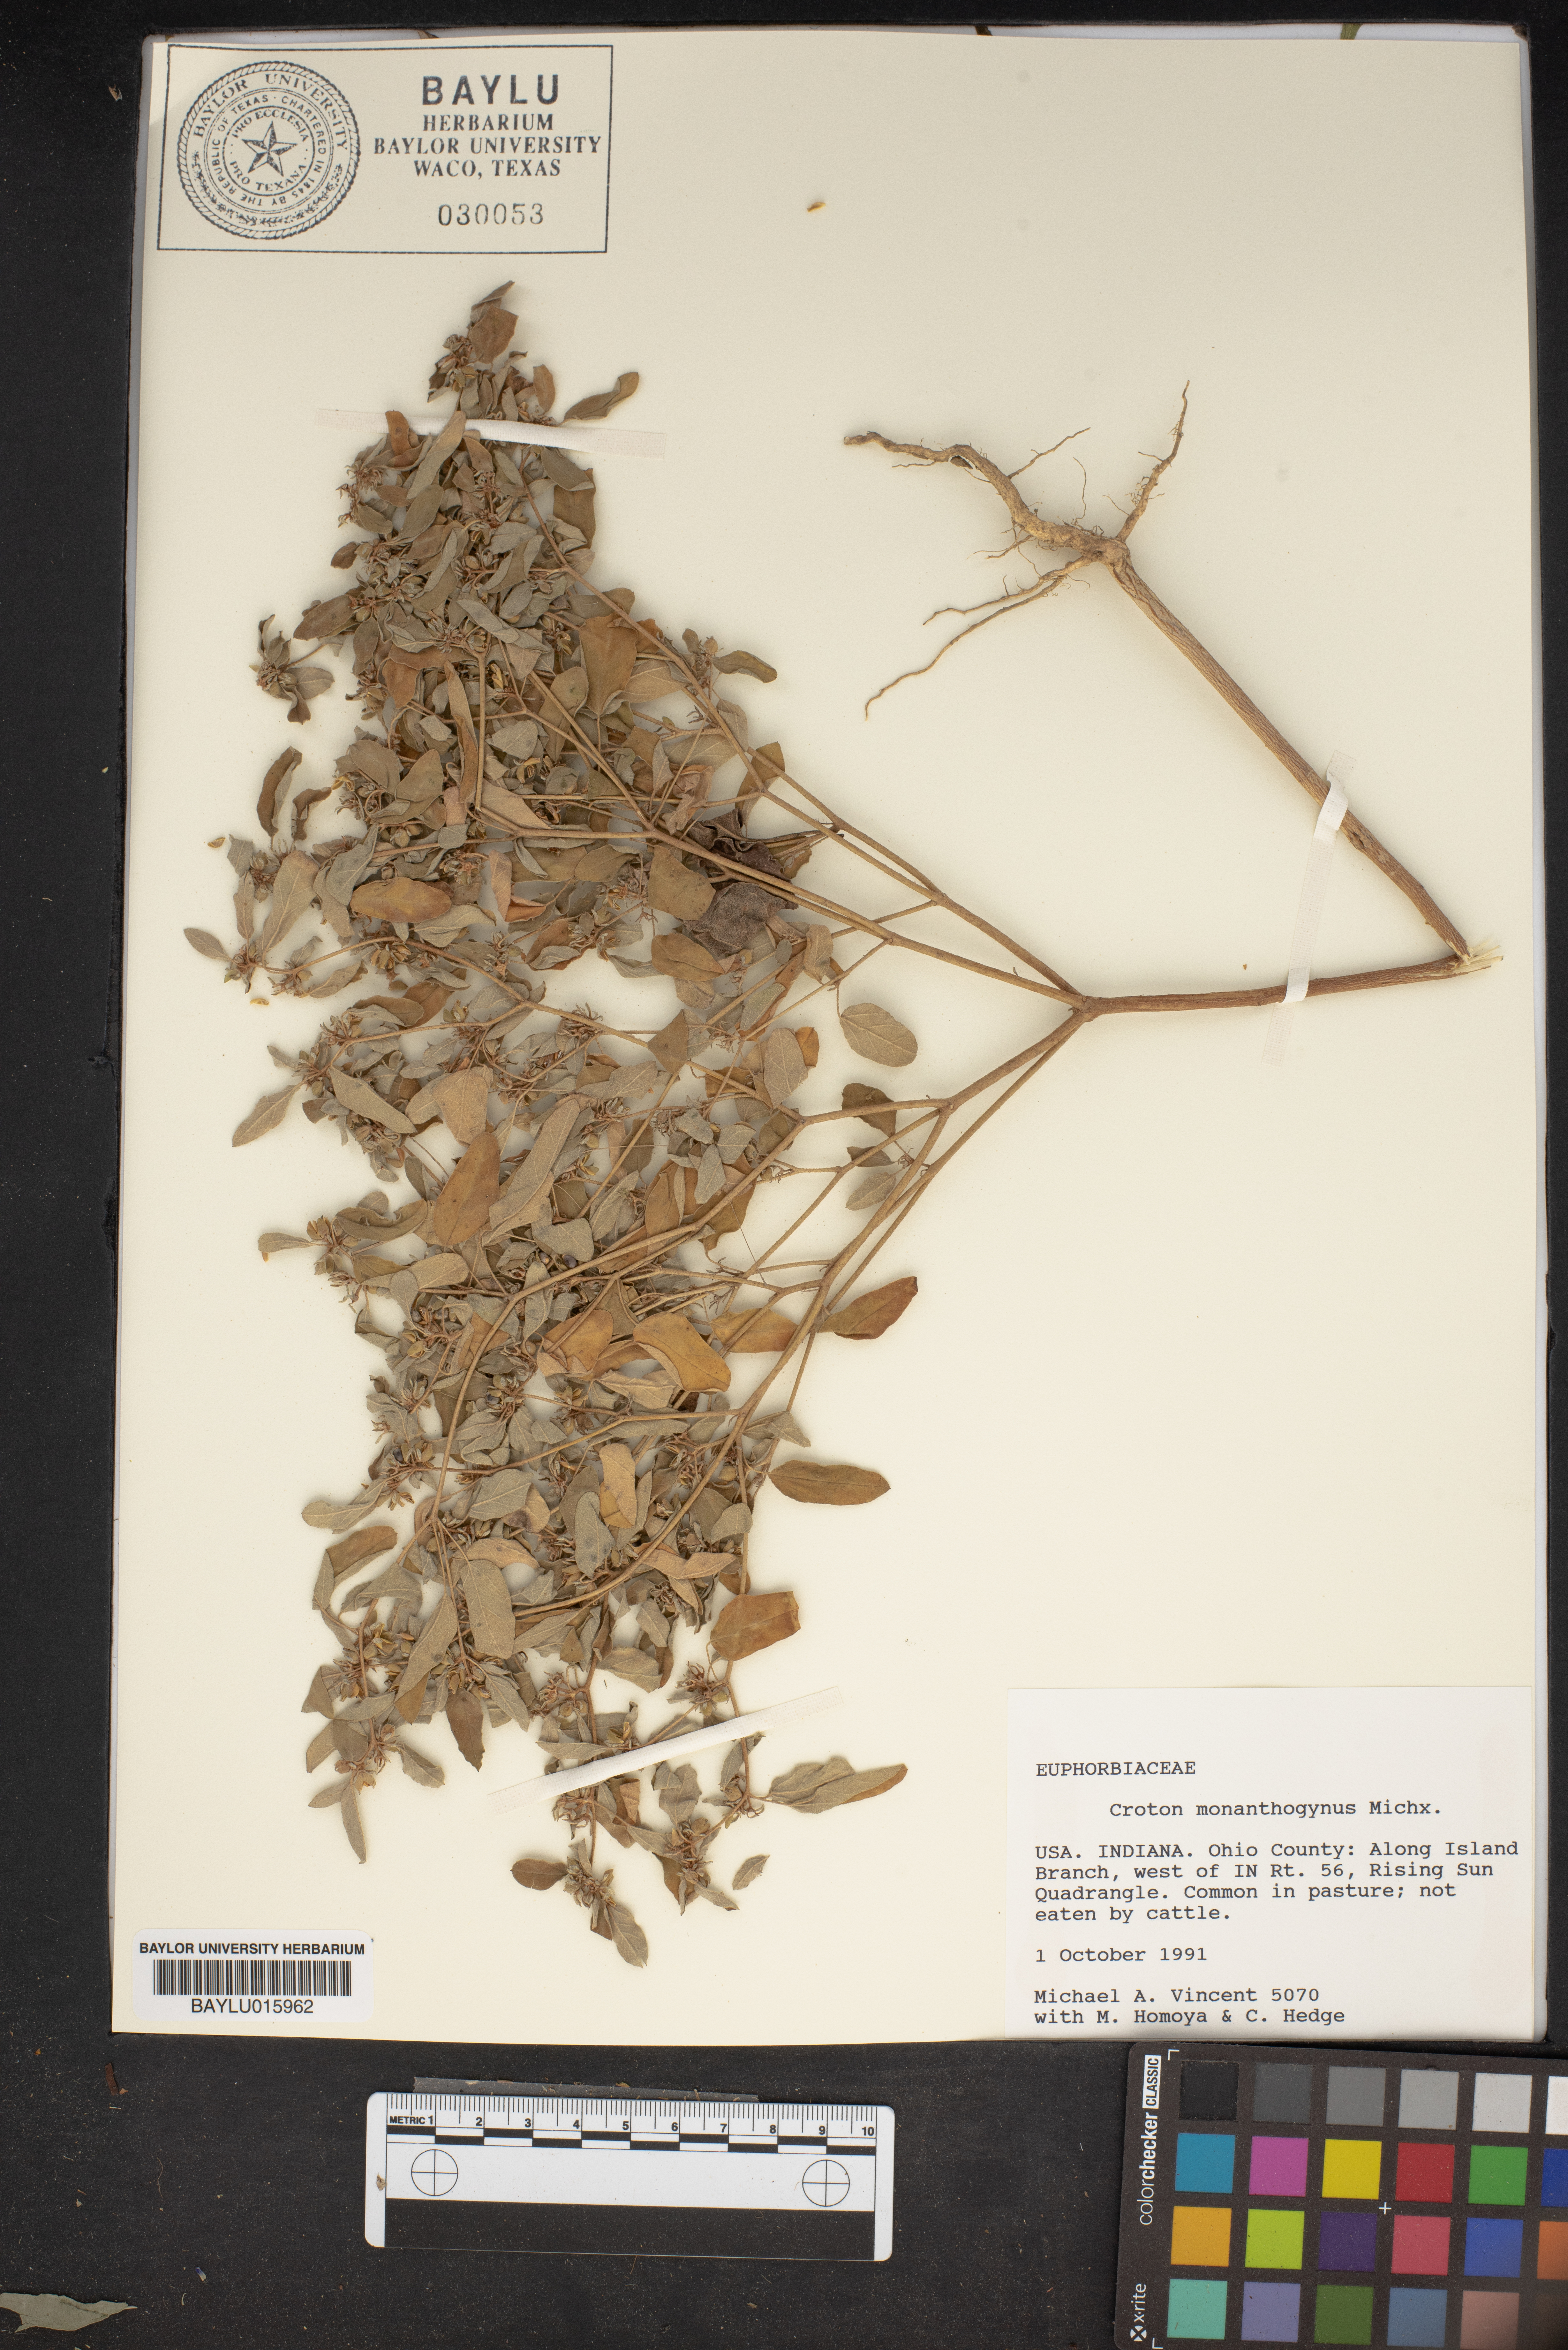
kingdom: Plantae
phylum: Tracheophyta
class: Magnoliopsida
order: Malpighiales
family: Euphorbiaceae
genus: Croton
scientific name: Croton monanthogynus
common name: One-seed croton
